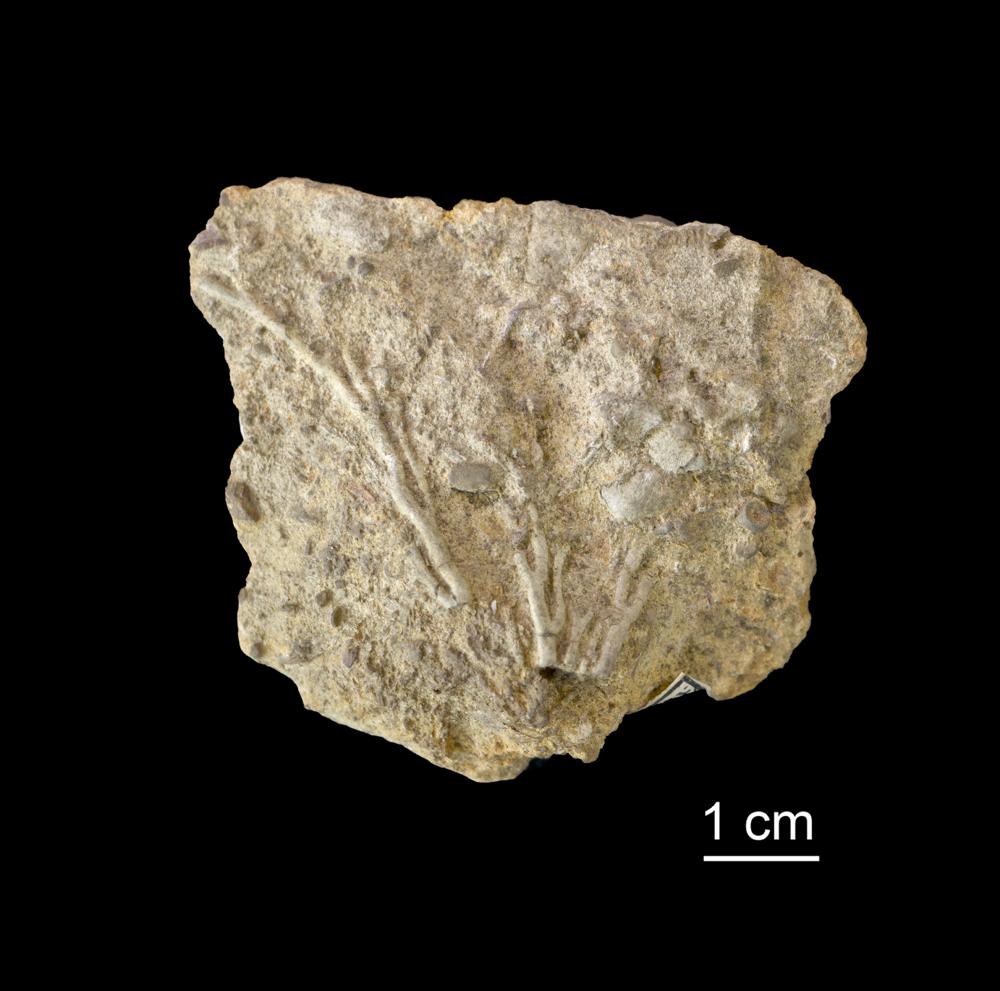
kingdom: Animalia
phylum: Bryozoa
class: Stenolaemata
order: Fenestrida
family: Phylloporinidae
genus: Pseudohornera
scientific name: Pseudohornera bifida
